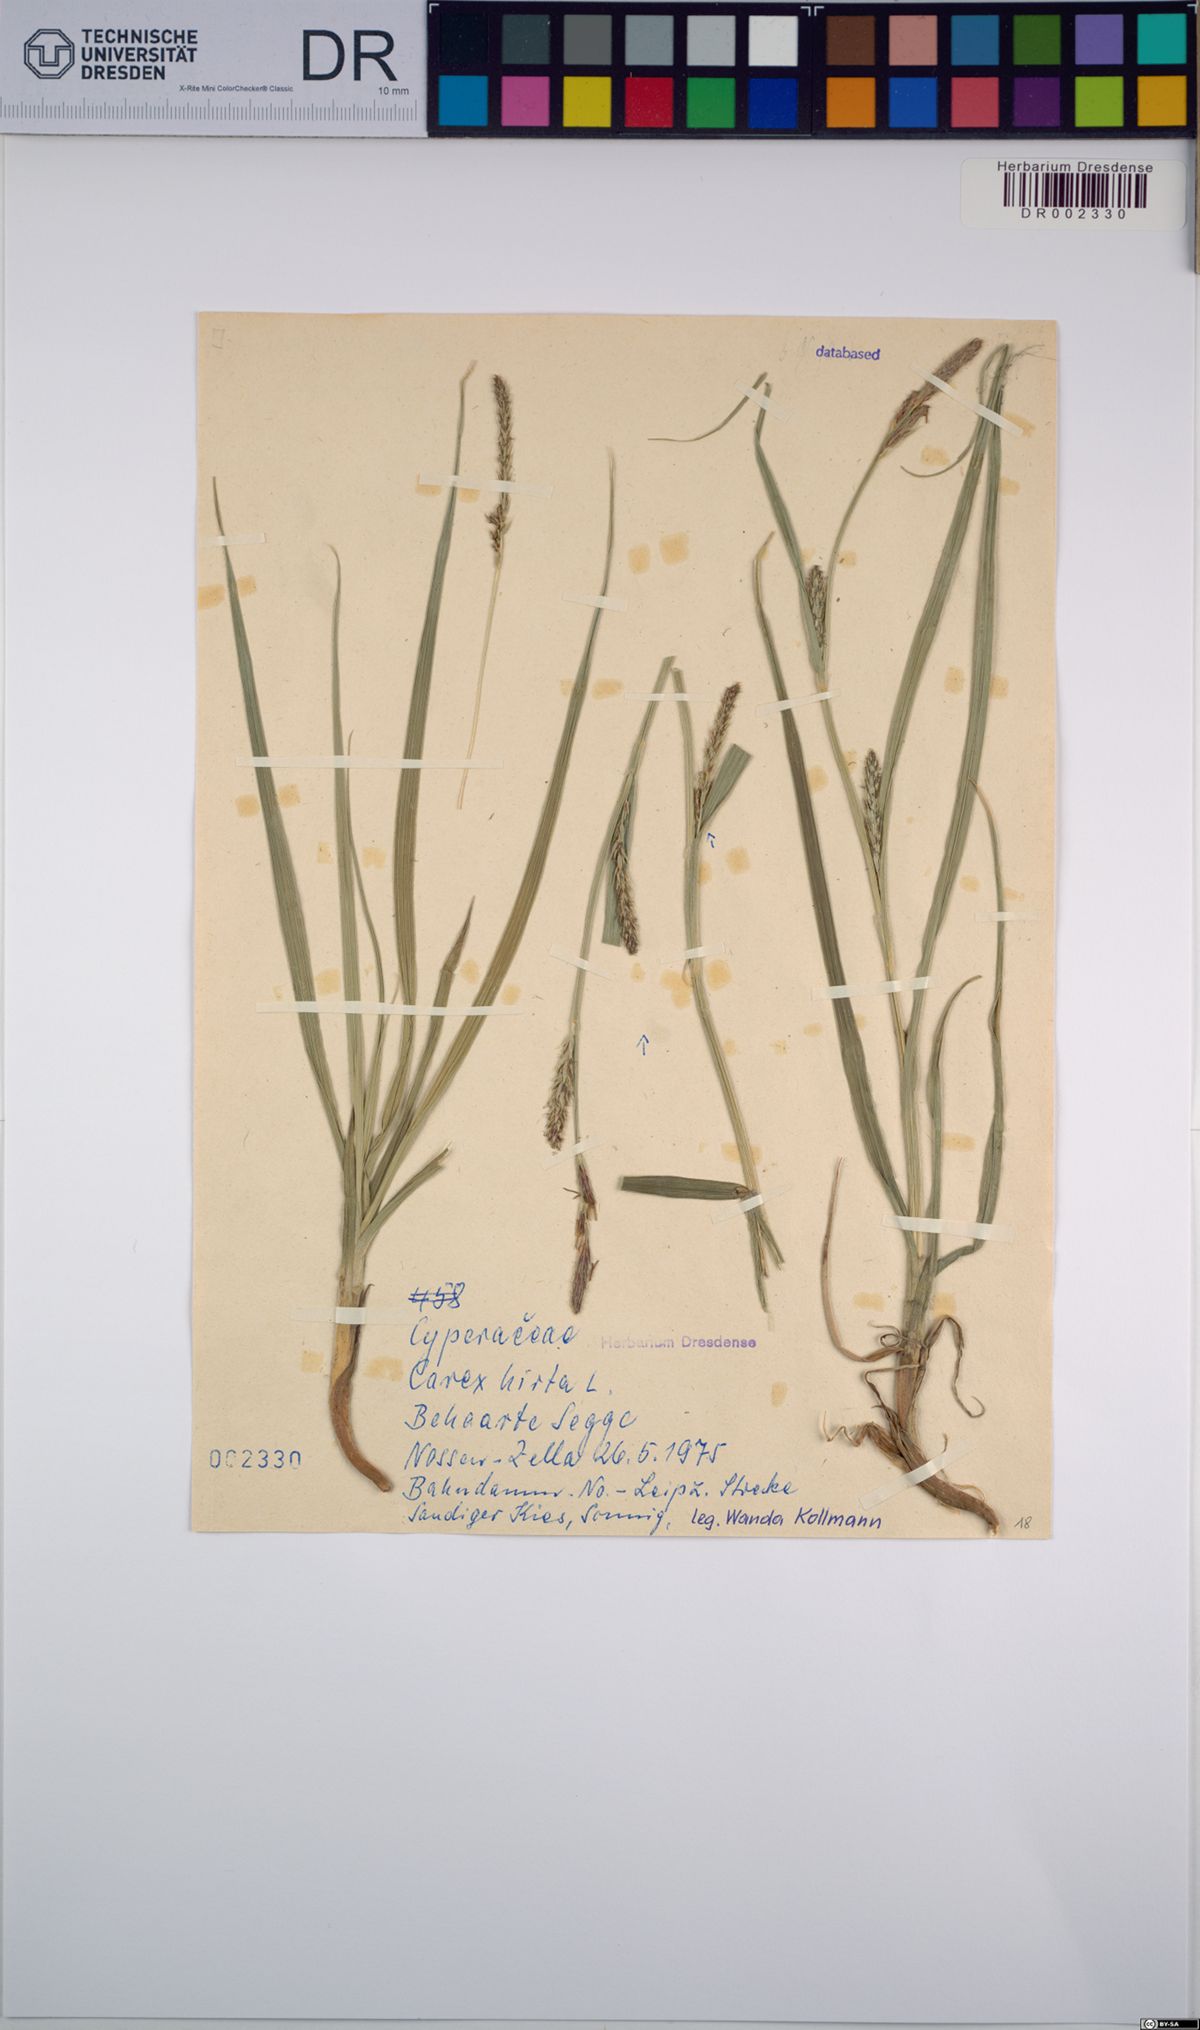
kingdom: Plantae
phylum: Tracheophyta
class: Liliopsida
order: Poales
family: Cyperaceae
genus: Carex
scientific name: Carex hirta
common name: Hairy sedge
